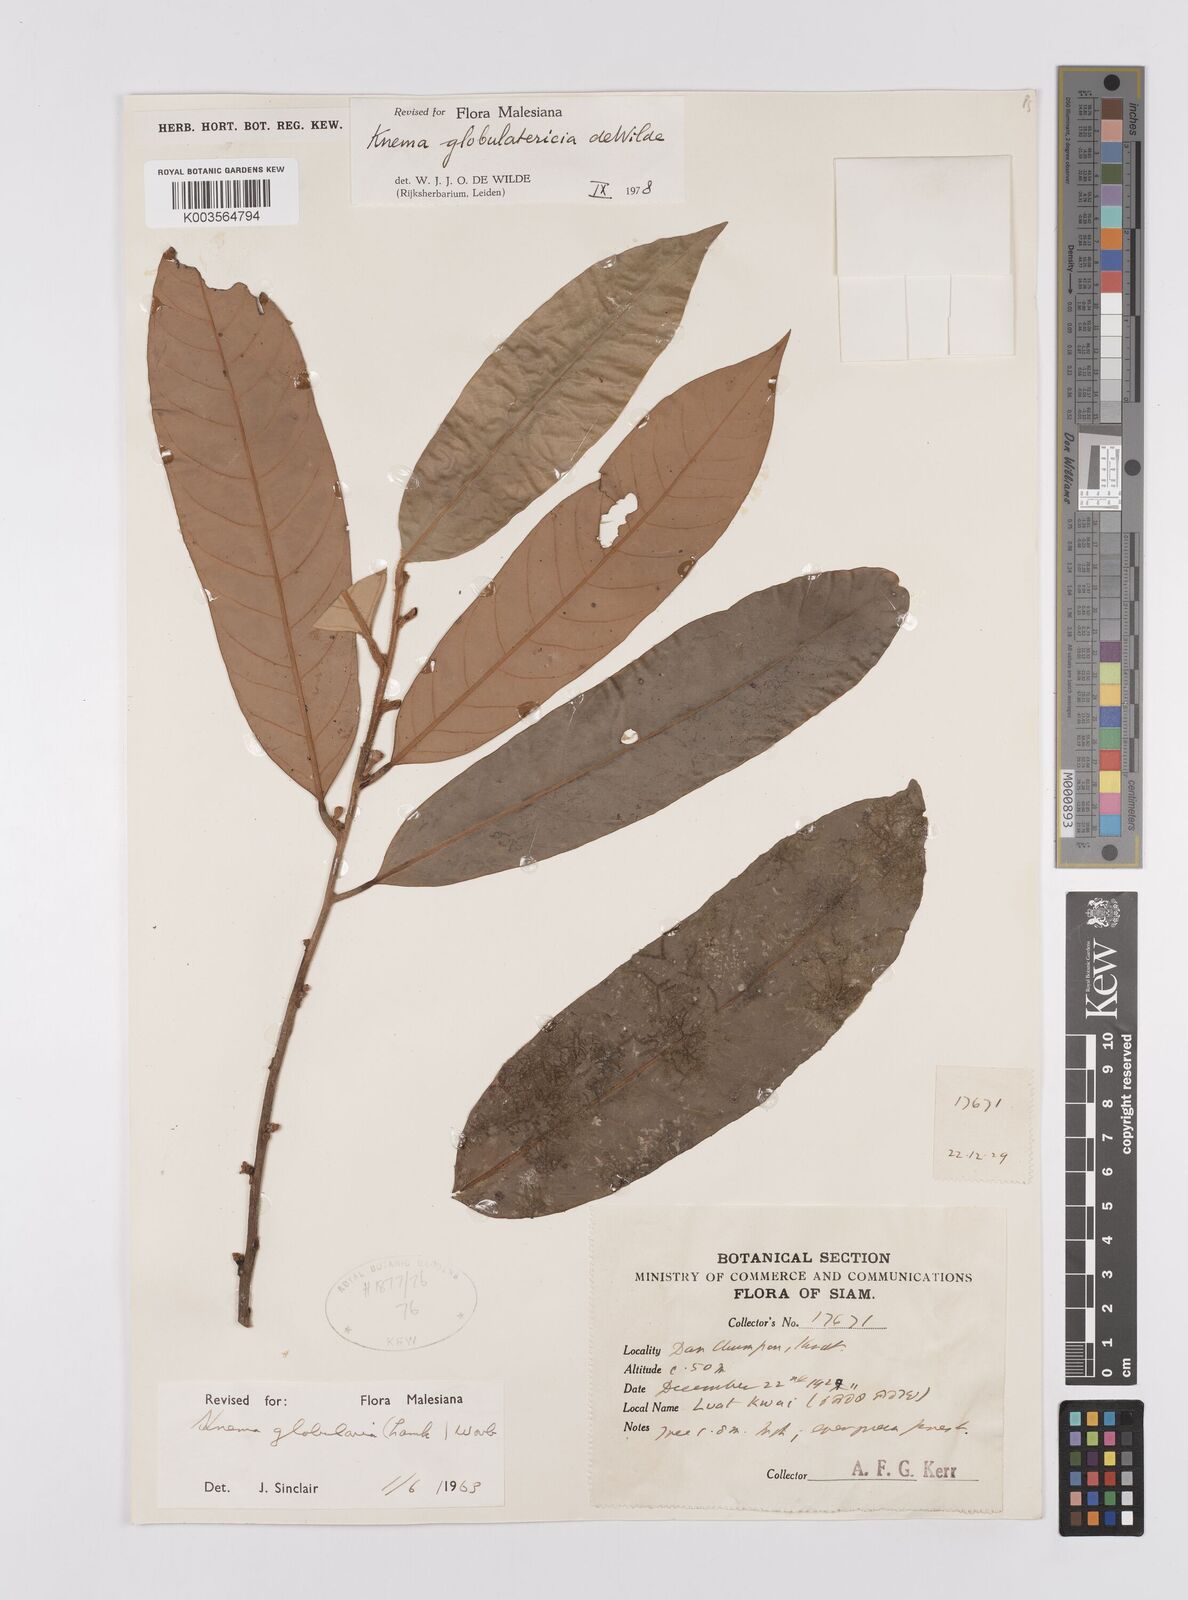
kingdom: Plantae
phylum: Tracheophyta
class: Magnoliopsida
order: Magnoliales
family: Myristicaceae
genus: Knema
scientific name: Knema globulatericia
